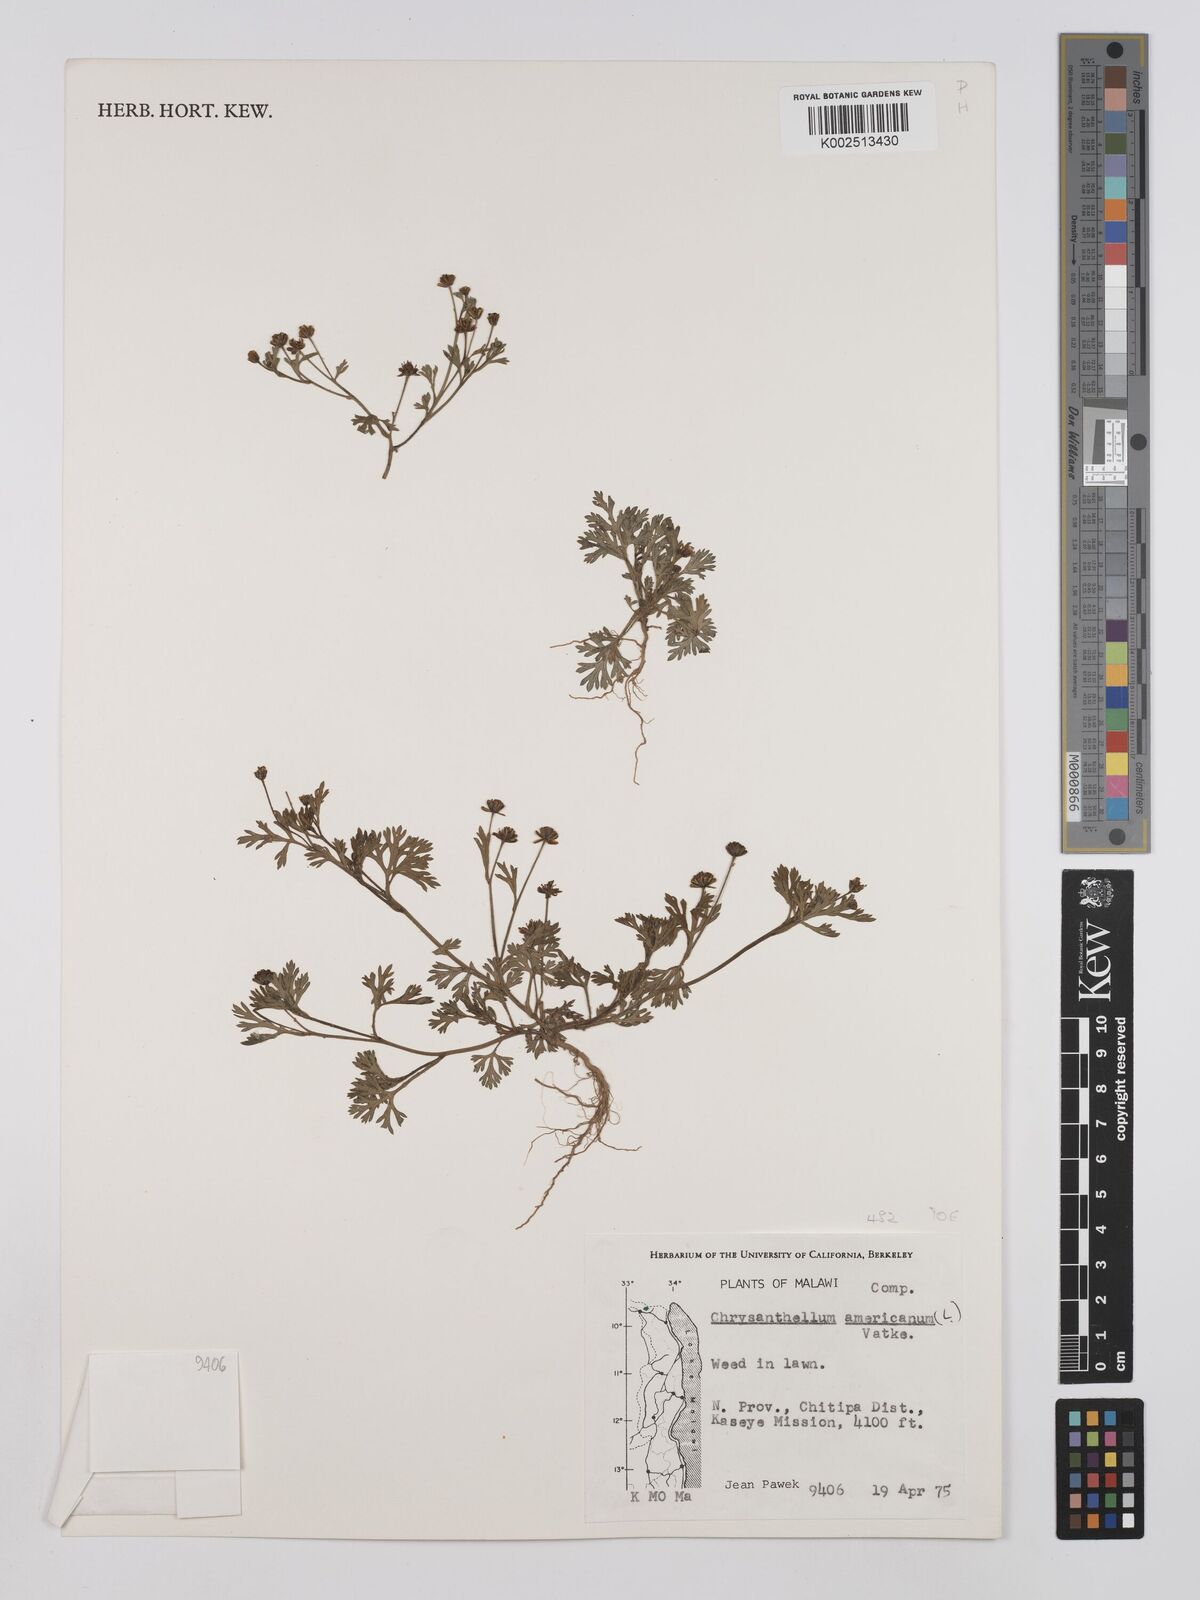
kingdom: Plantae
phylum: Tracheophyta
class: Magnoliopsida
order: Asterales
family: Asteraceae
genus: Chrysanthellum
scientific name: Chrysanthellum indicum
